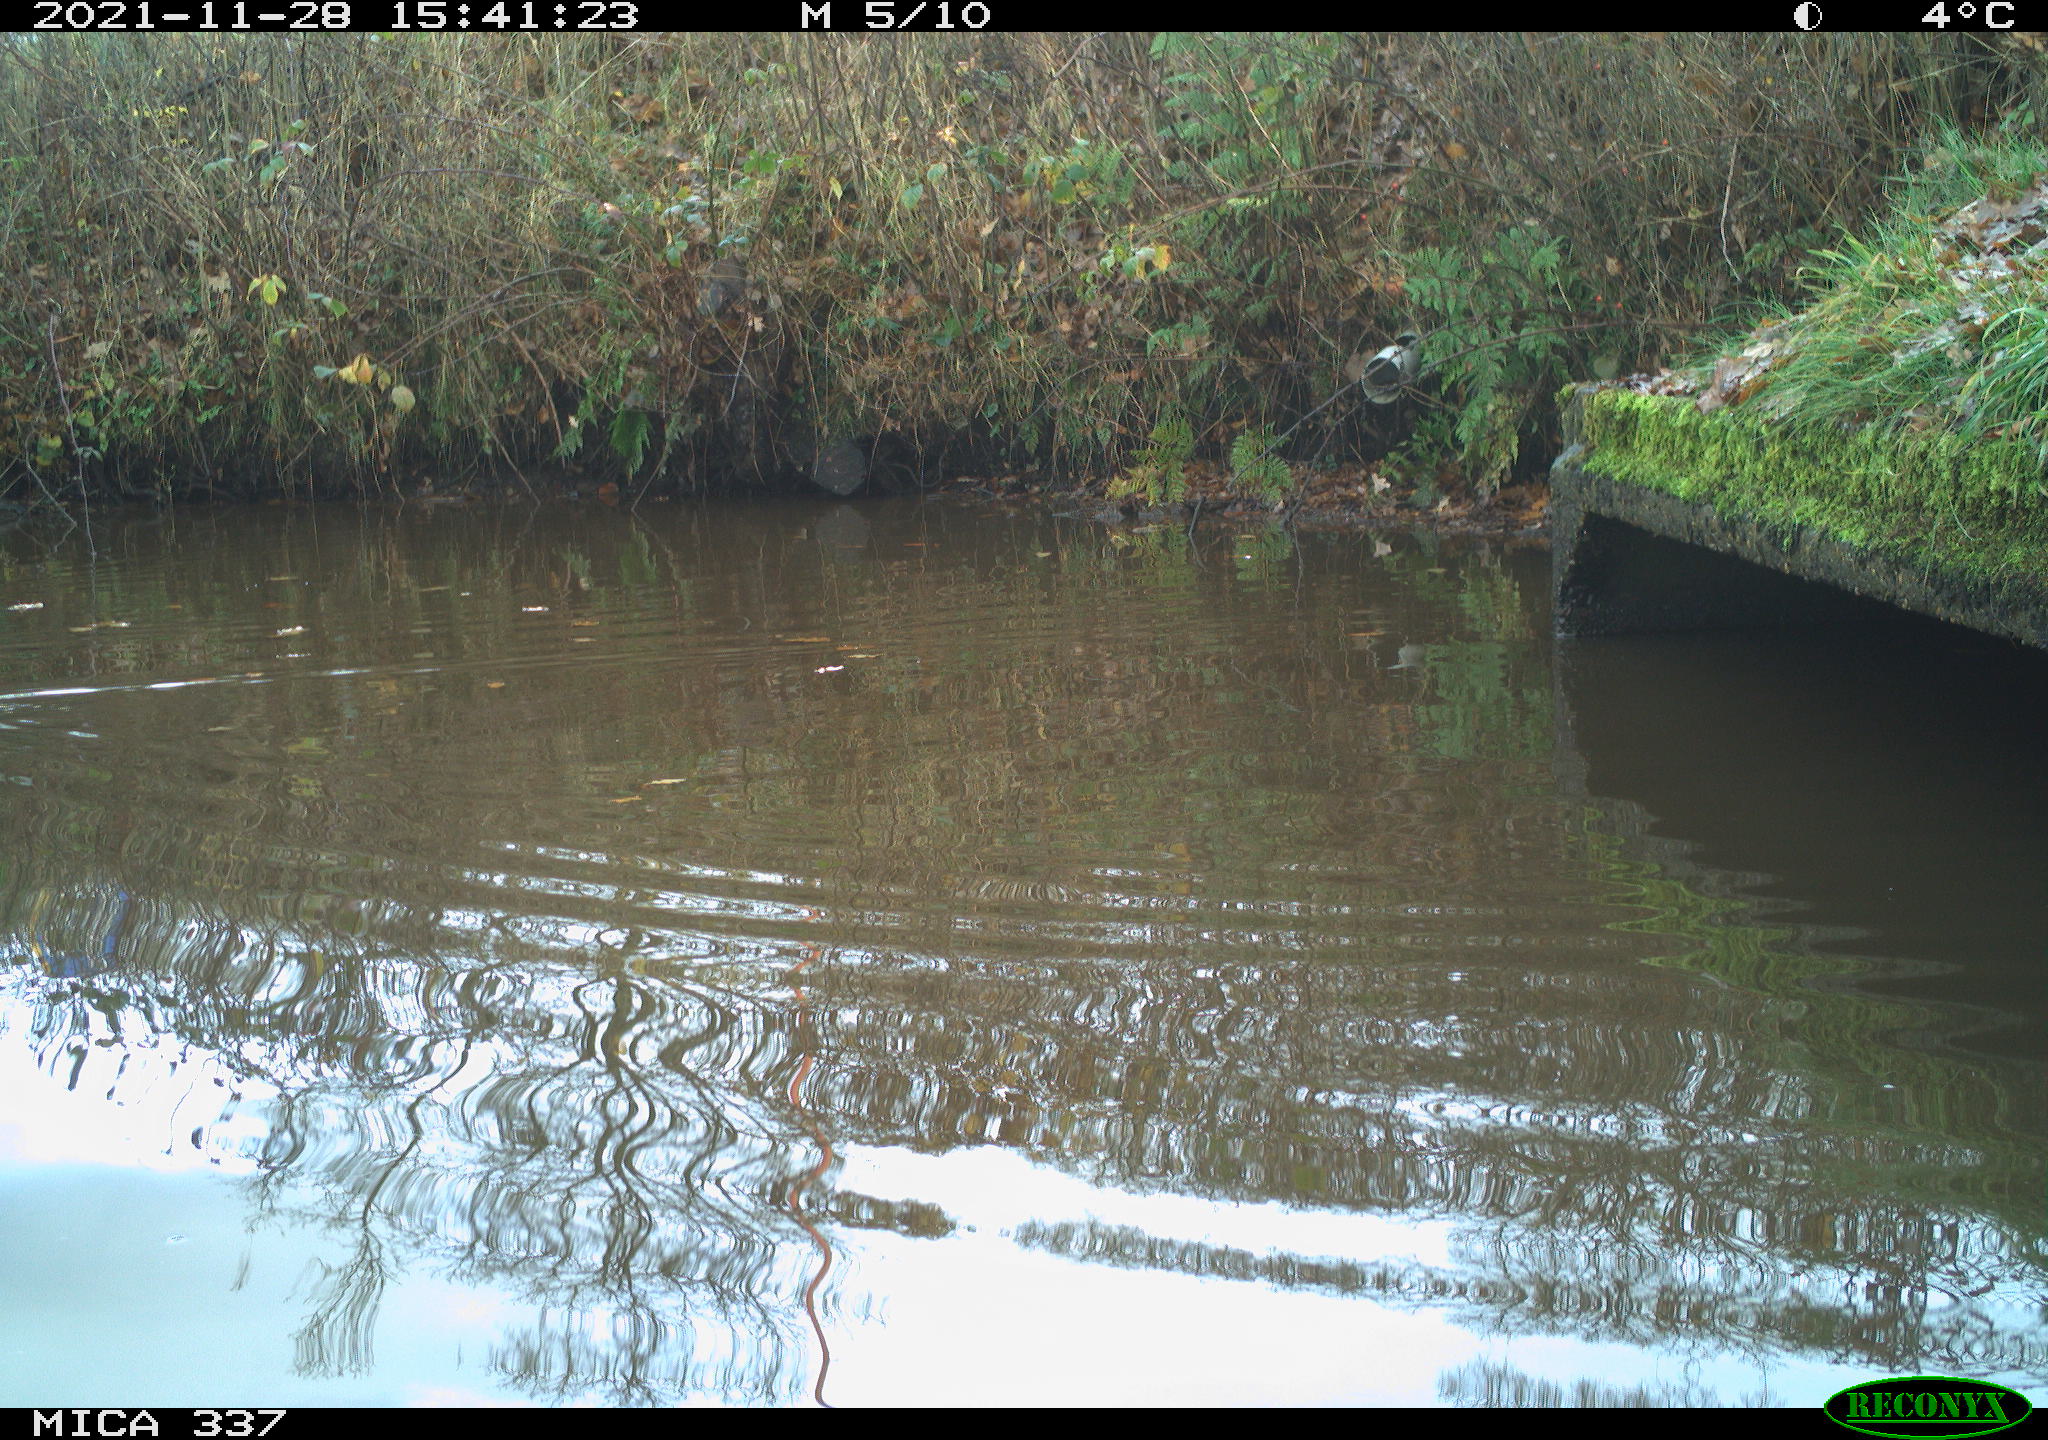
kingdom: Animalia
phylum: Chordata
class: Aves
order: Anseriformes
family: Anatidae
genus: Anas
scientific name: Anas platyrhynchos
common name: Mallard
